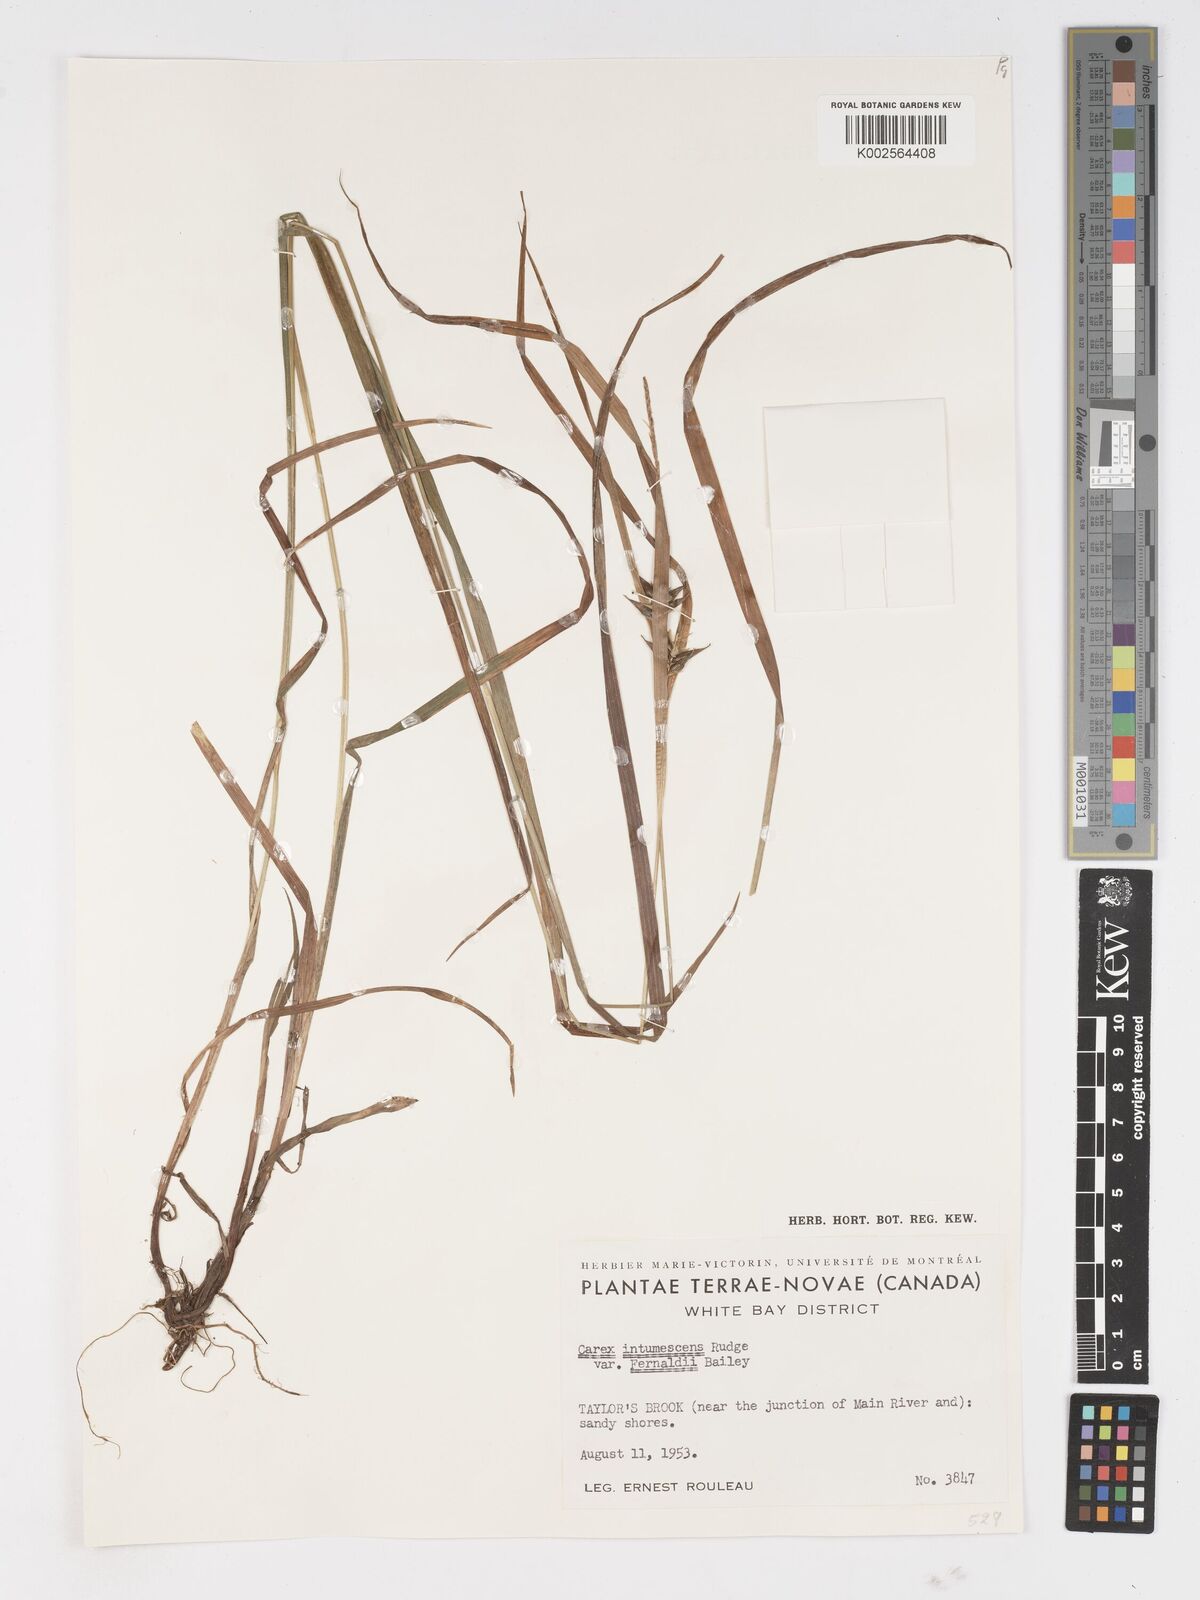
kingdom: Plantae
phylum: Tracheophyta
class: Liliopsida
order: Poales
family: Cyperaceae
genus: Carex
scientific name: Carex intumescens
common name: Greater bladder sedge
